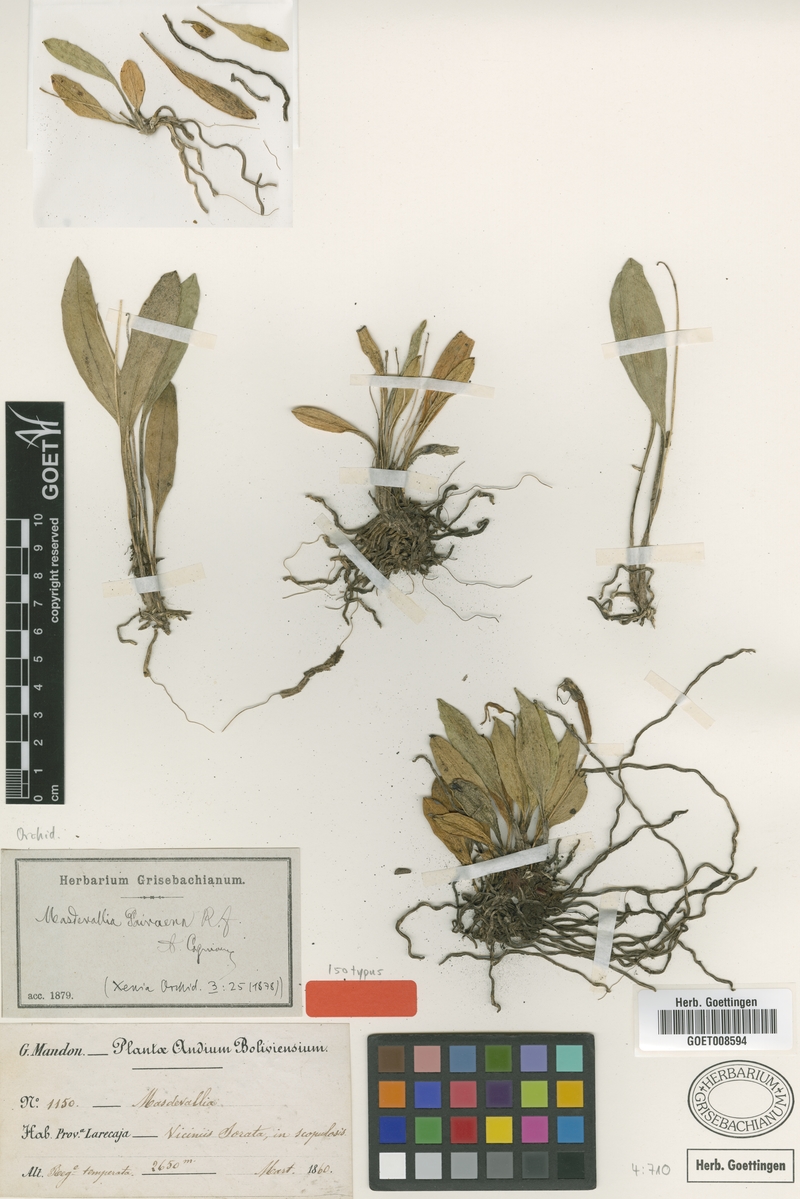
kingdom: Plantae
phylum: Tracheophyta
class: Liliopsida
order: Asparagales
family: Orchidaceae
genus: Masdevallia
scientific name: Masdevallia paivaeana
